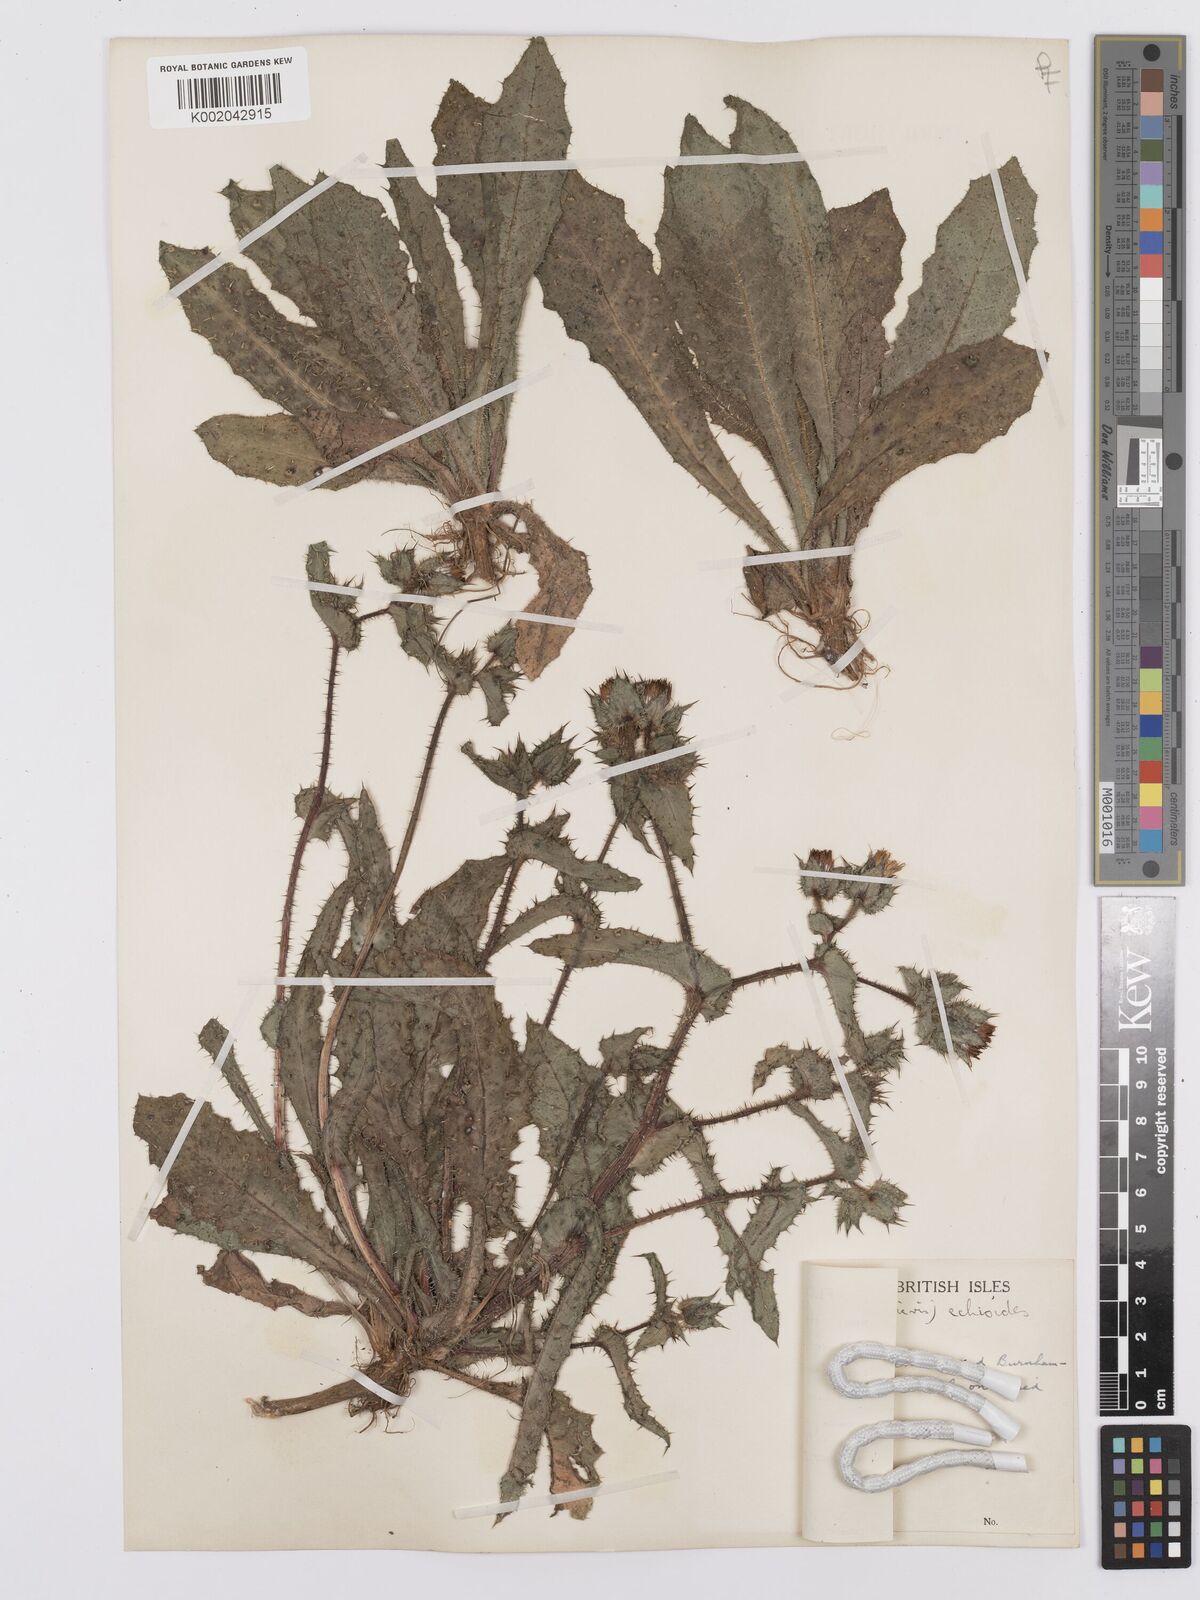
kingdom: Plantae
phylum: Tracheophyta
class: Magnoliopsida
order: Asterales
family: Asteraceae
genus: Helminthotheca
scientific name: Helminthotheca echioides
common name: Ox-tongue
